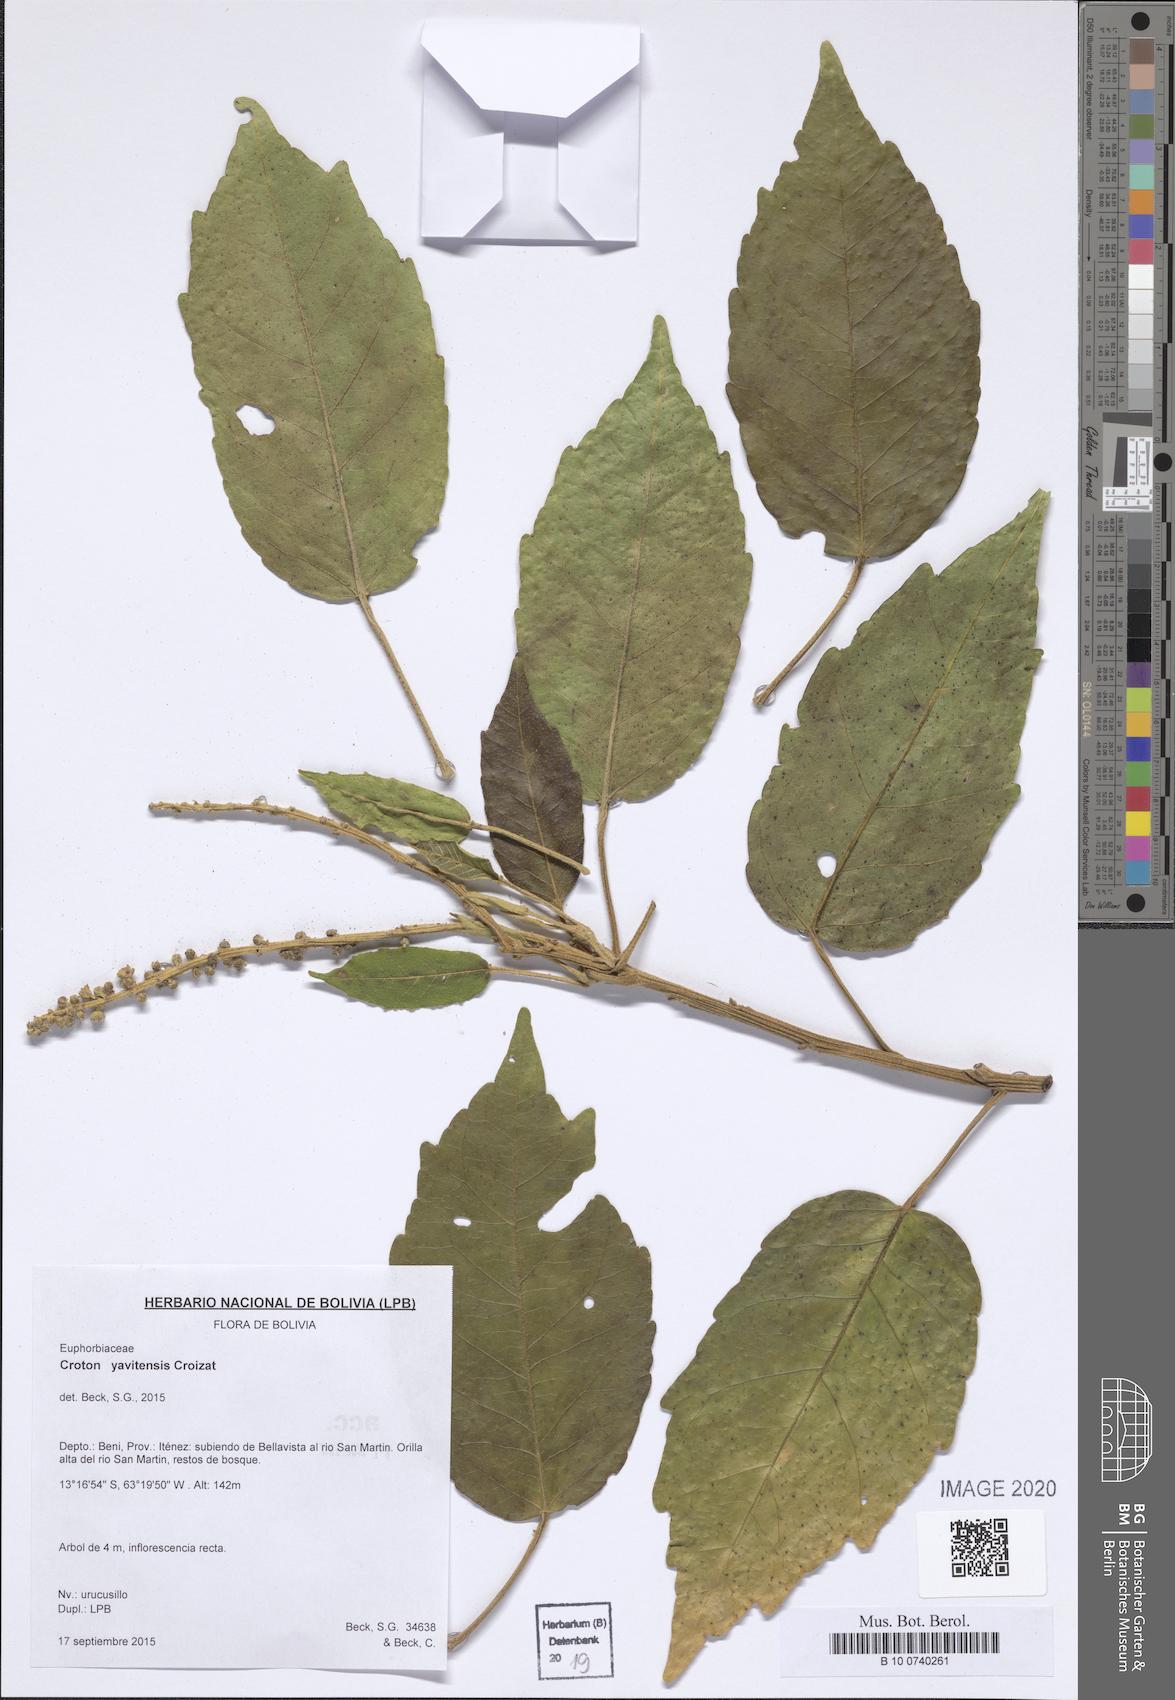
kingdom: Plantae
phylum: Tracheophyta
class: Magnoliopsida
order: Malpighiales
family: Euphorbiaceae
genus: Croton
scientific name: Croton yavitensis
